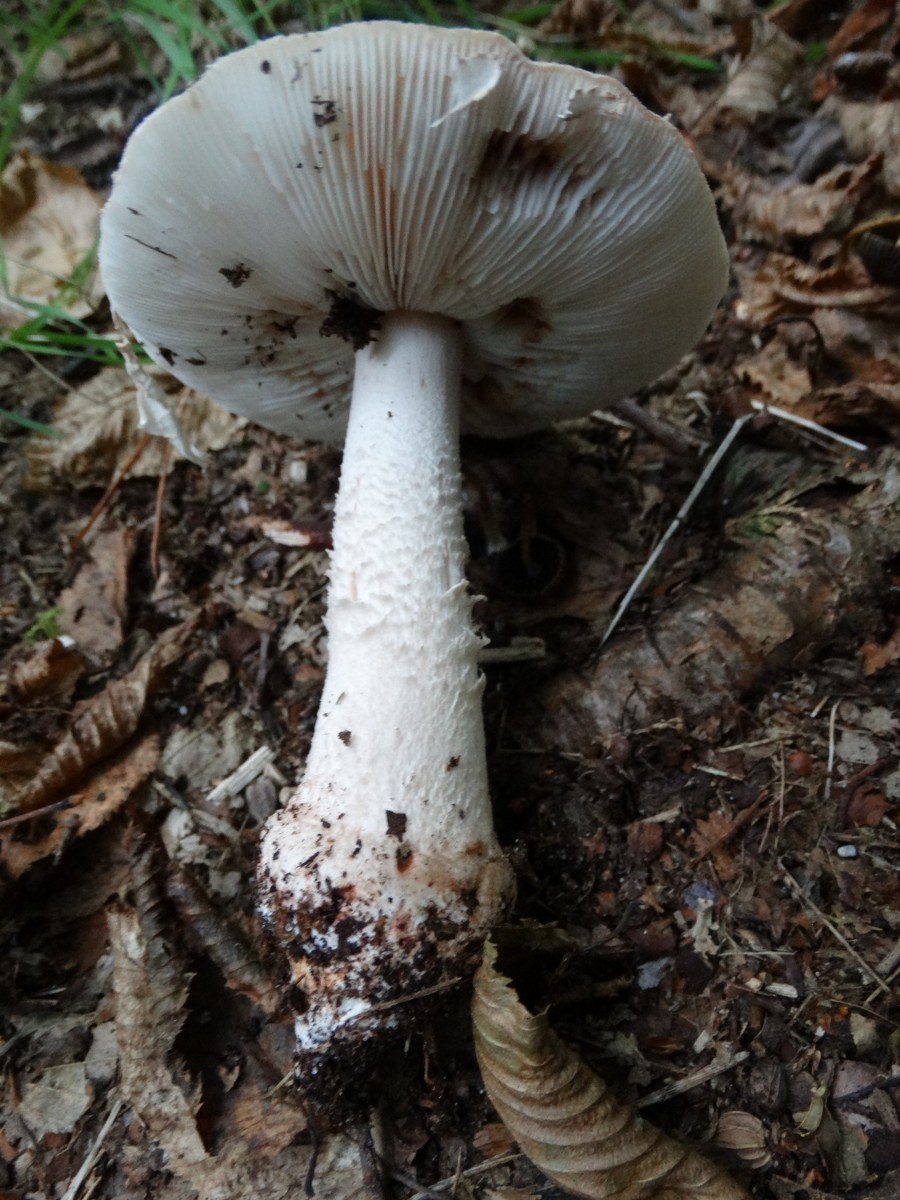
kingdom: Fungi
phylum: Basidiomycota
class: Agaricomycetes
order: Agaricales
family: Amanitaceae
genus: Amanita
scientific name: Amanita rubescens
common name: rødmende fluesvamp
